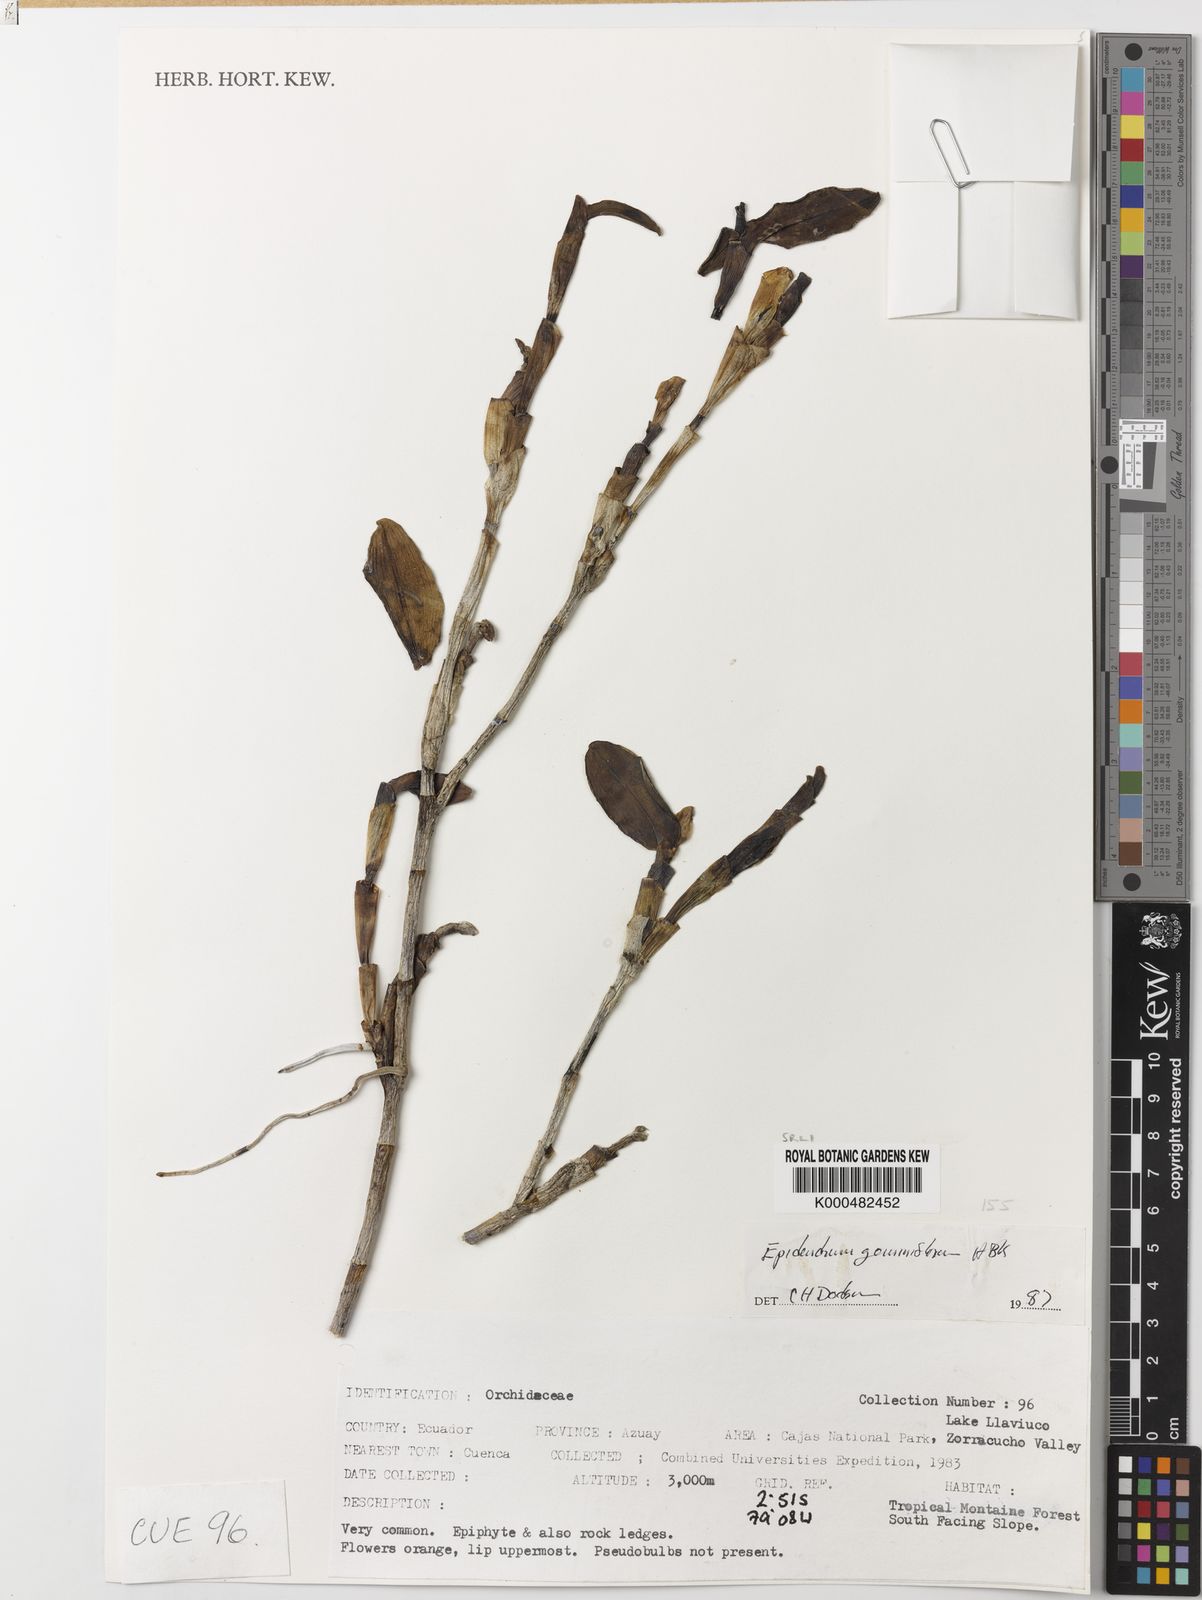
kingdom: Plantae
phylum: Tracheophyta
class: Liliopsida
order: Asparagales
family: Orchidaceae
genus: Epidendrum
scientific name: Epidendrum geminiflorum
